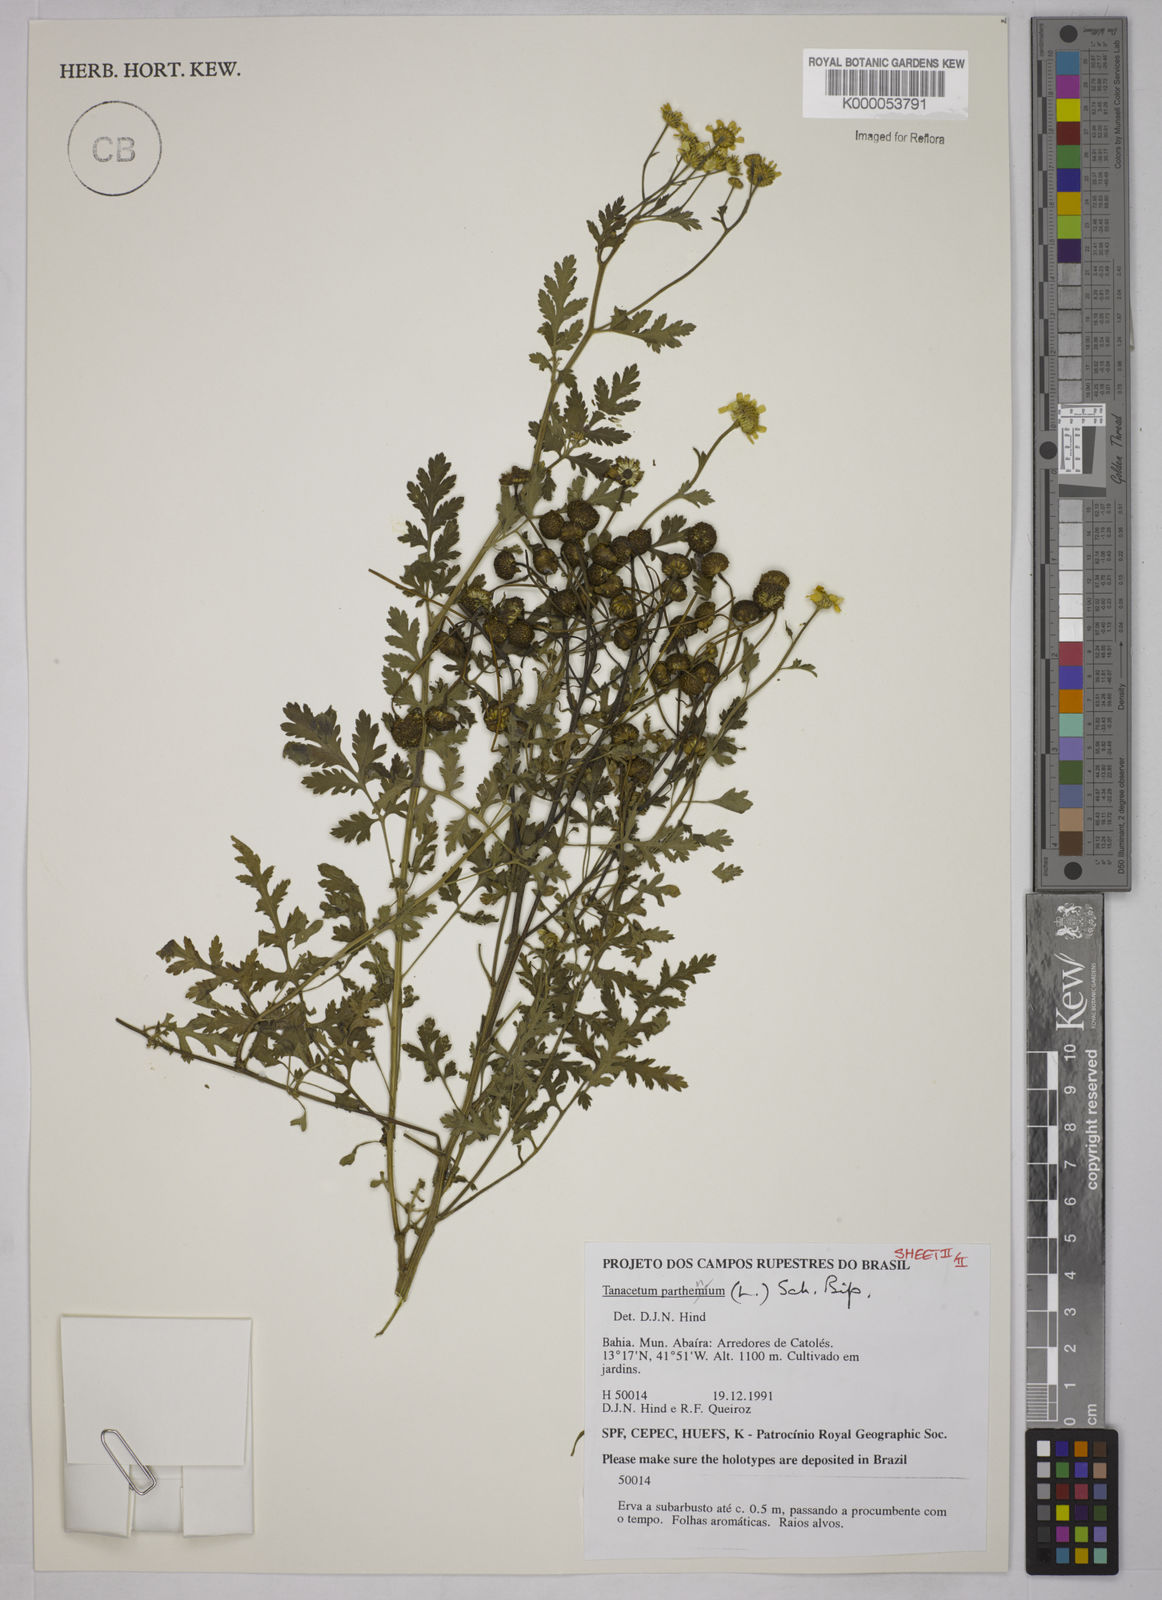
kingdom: Plantae
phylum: Tracheophyta
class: Magnoliopsida
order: Asterales
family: Asteraceae
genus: Tanacetum
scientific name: Tanacetum
